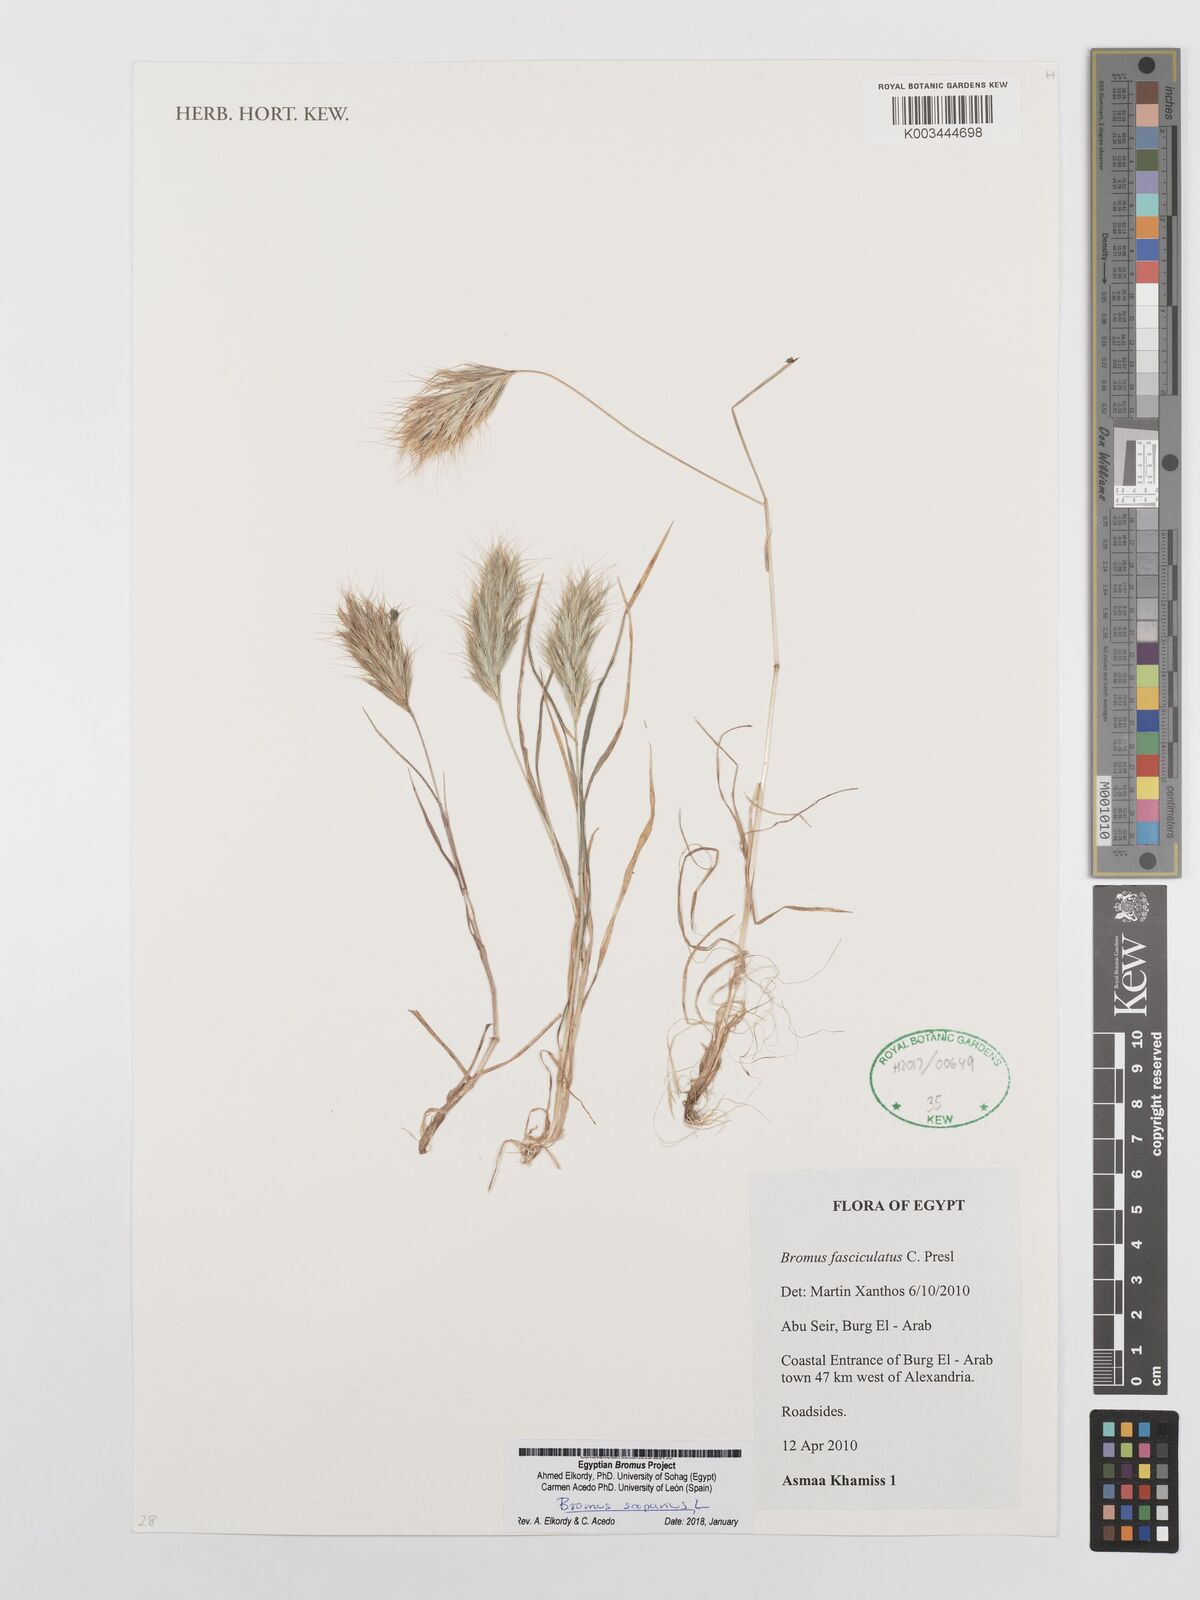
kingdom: Plantae
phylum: Tracheophyta
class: Liliopsida
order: Poales
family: Poaceae
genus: Bromus
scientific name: Bromus scoparius
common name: Broom brome
